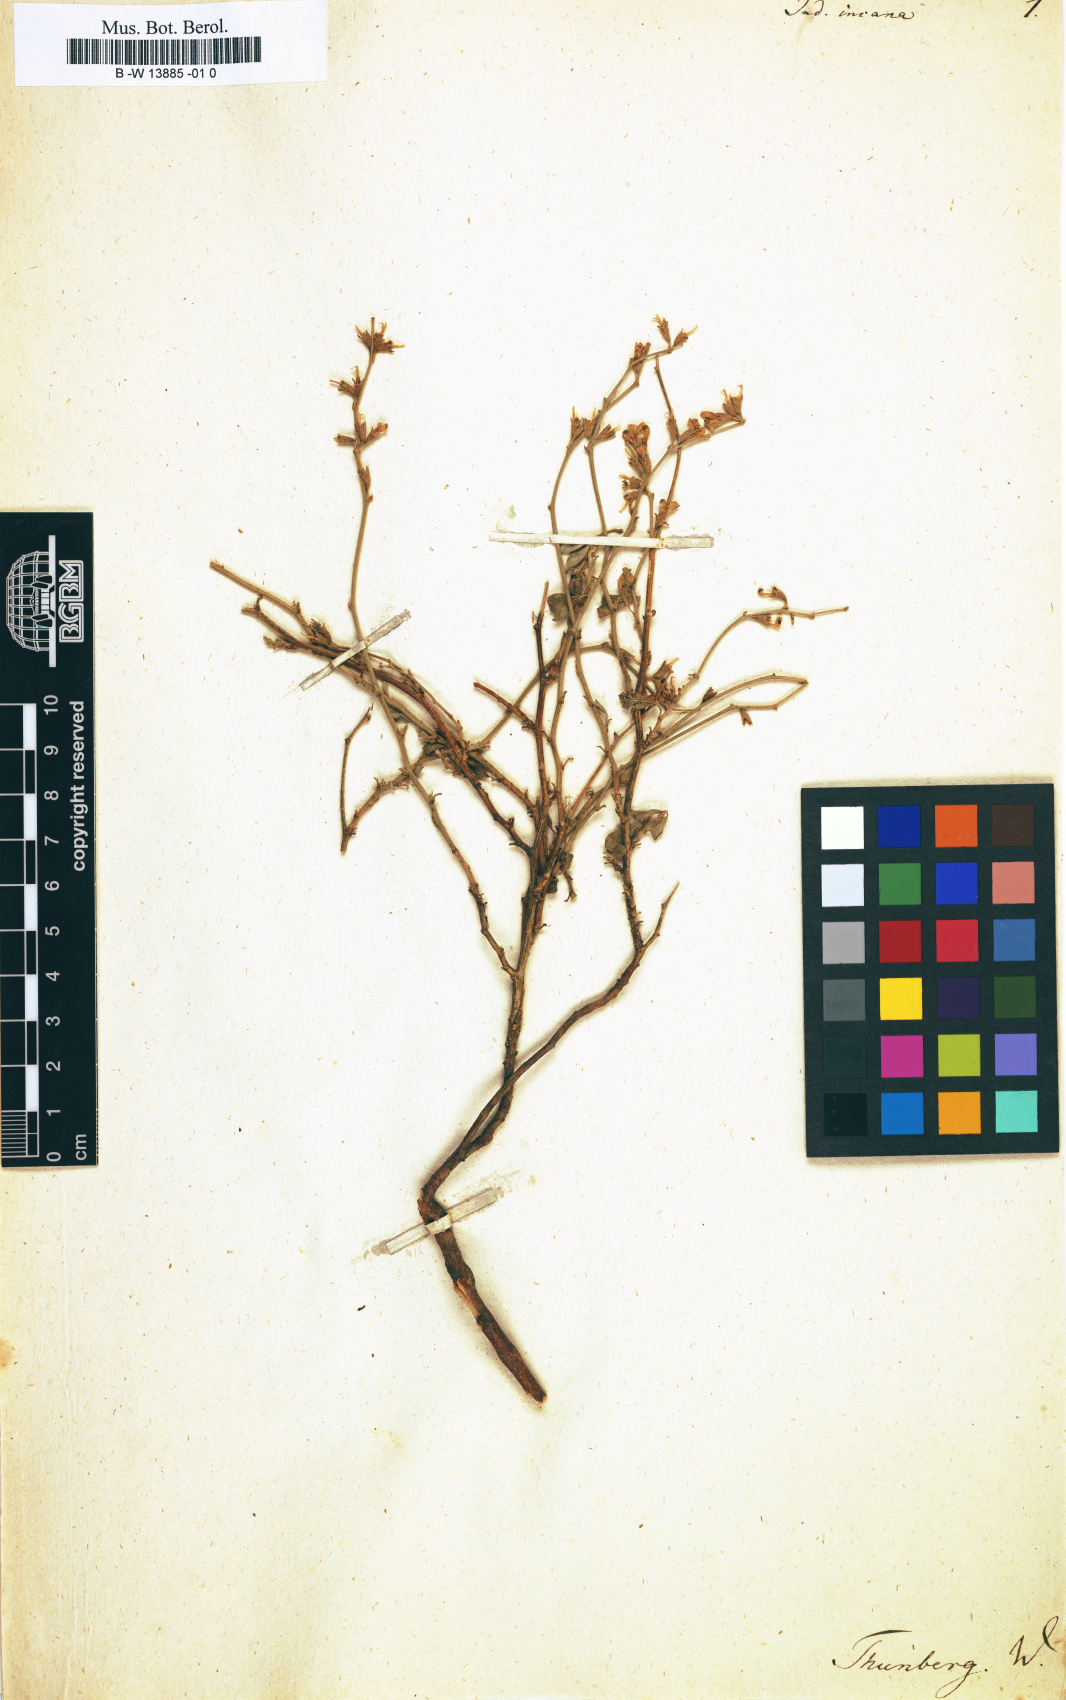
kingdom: Plantae
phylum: Tracheophyta
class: Magnoliopsida
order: Fabales
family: Fabaceae
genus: Indigofera
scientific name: Indigofera incana
